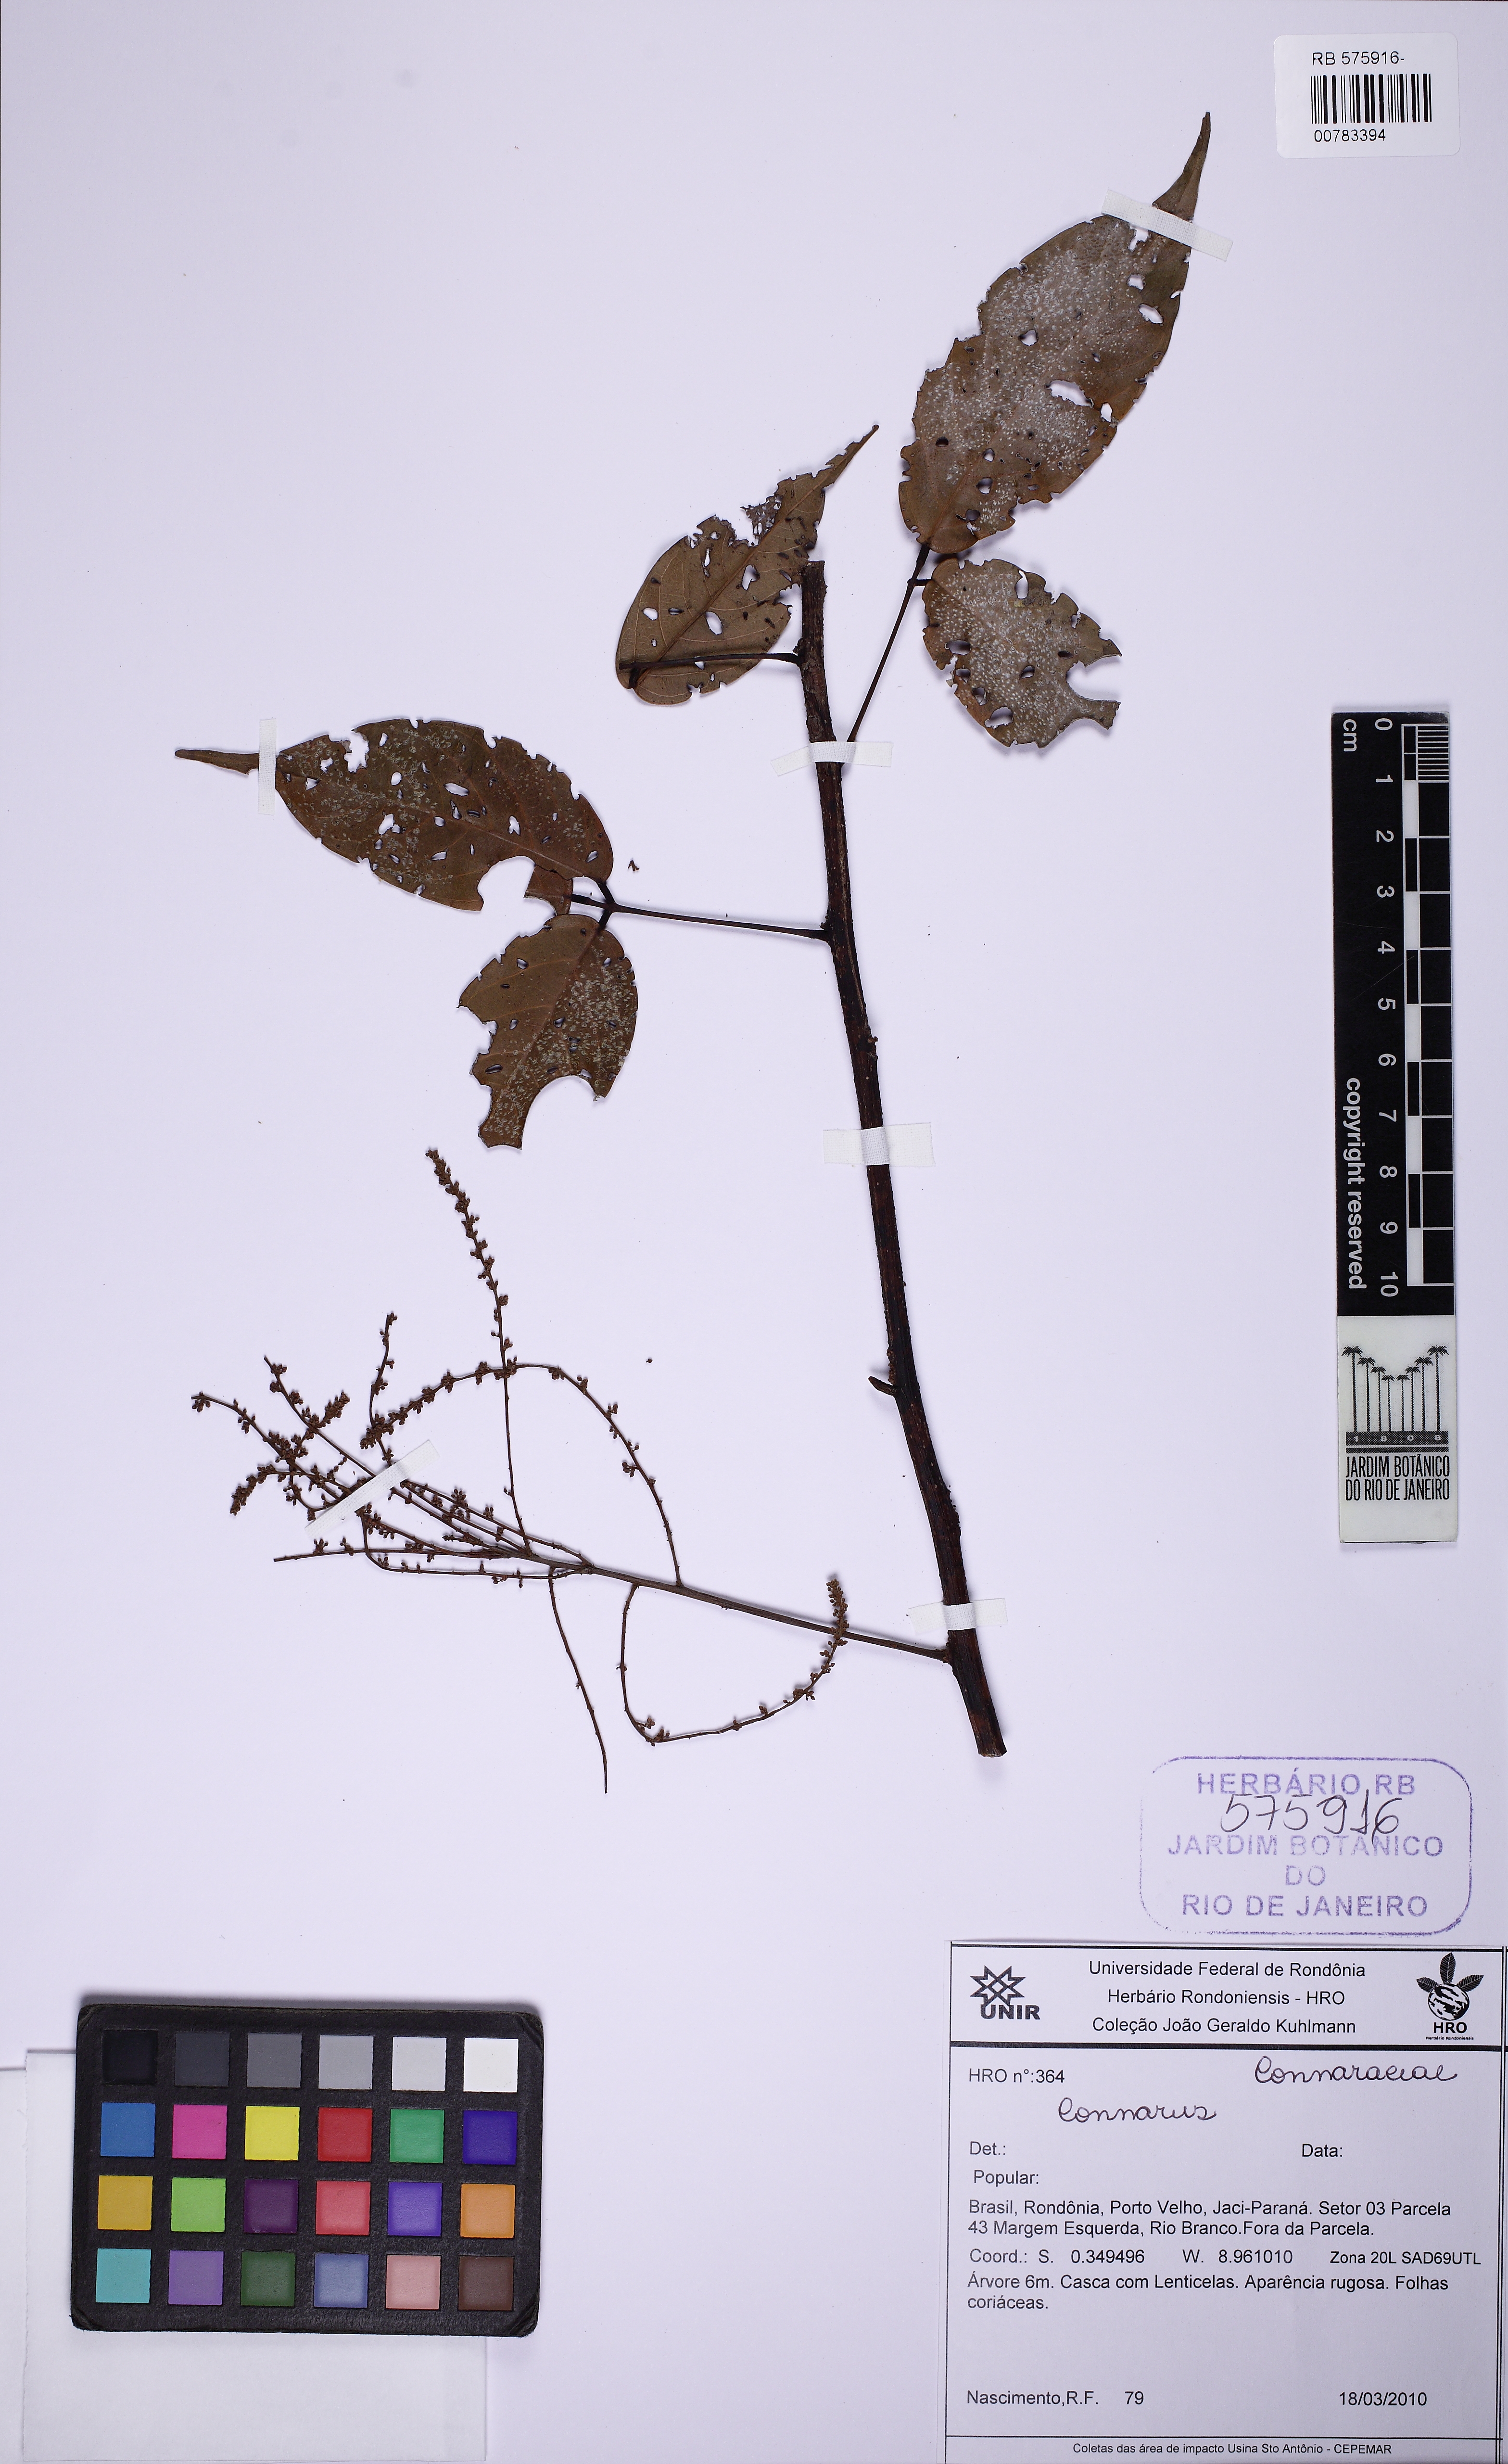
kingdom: Plantae
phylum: Tracheophyta
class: Magnoliopsida
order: Oxalidales
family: Connaraceae
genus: Connarus
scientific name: Connarus
